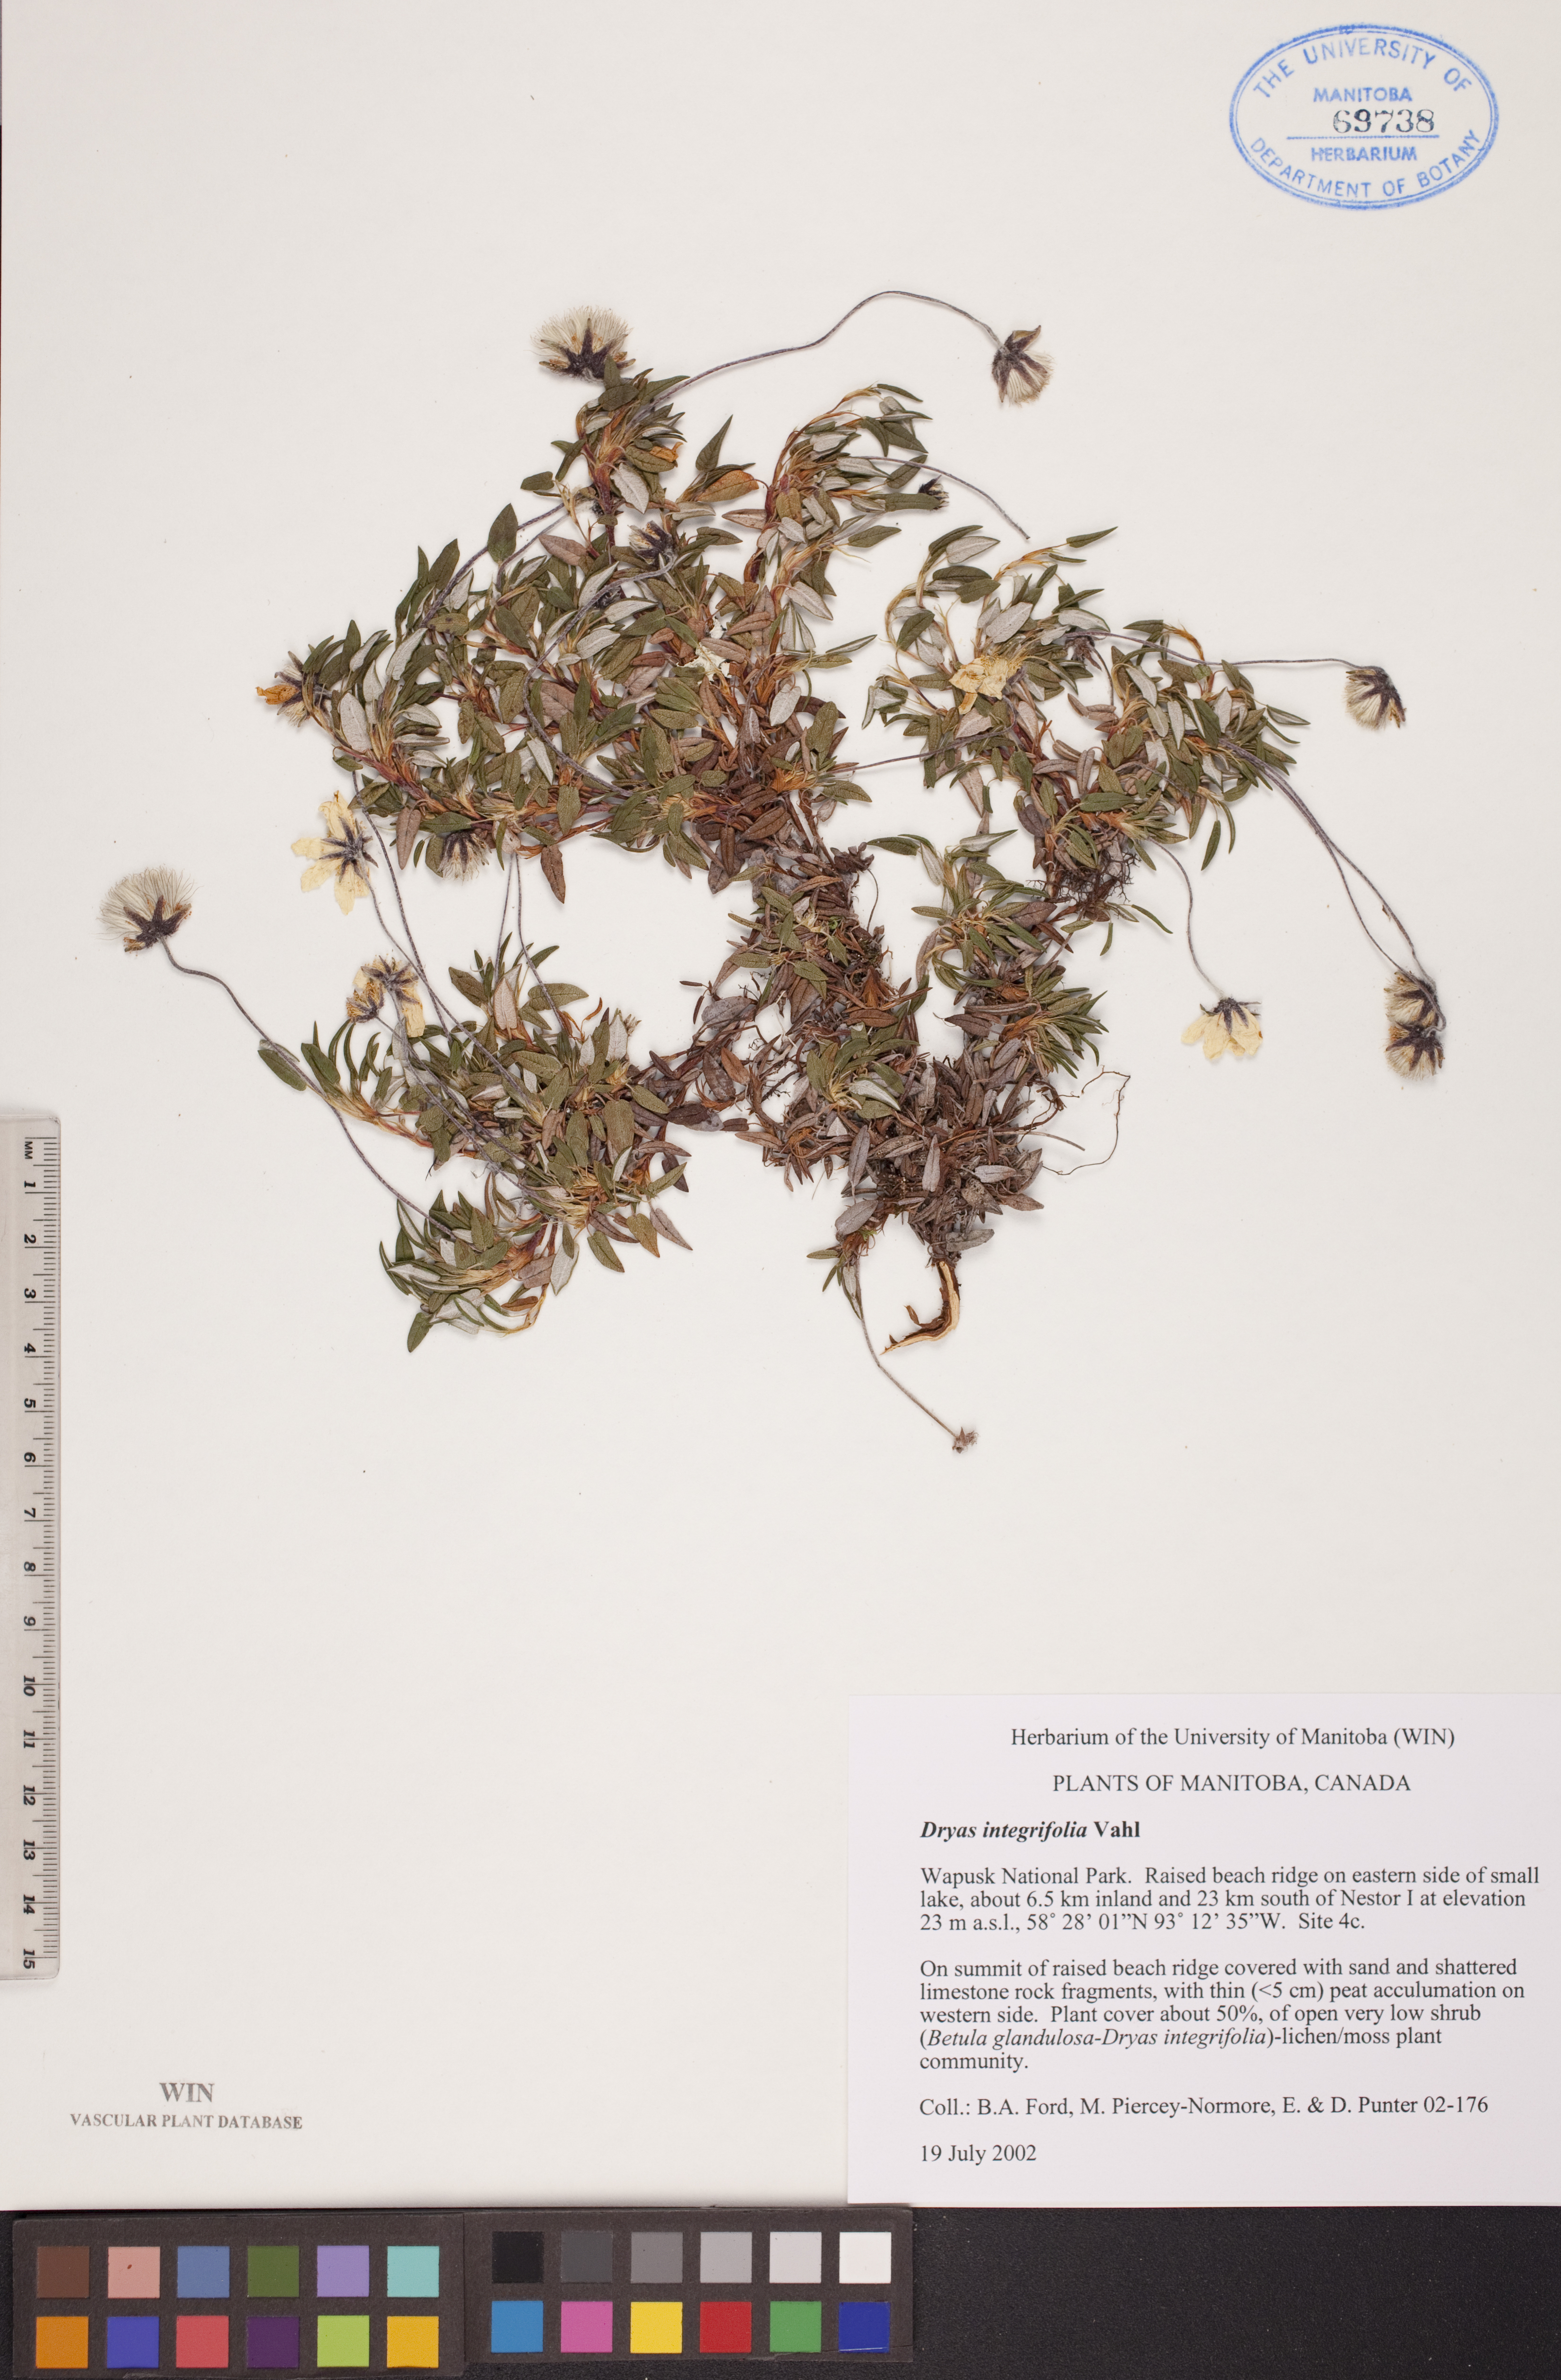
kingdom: Plantae
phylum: Tracheophyta
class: Magnoliopsida
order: Rosales
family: Rosaceae
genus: Dryas
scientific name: Dryas integrifolia
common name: Entire-leaved mountain avens
